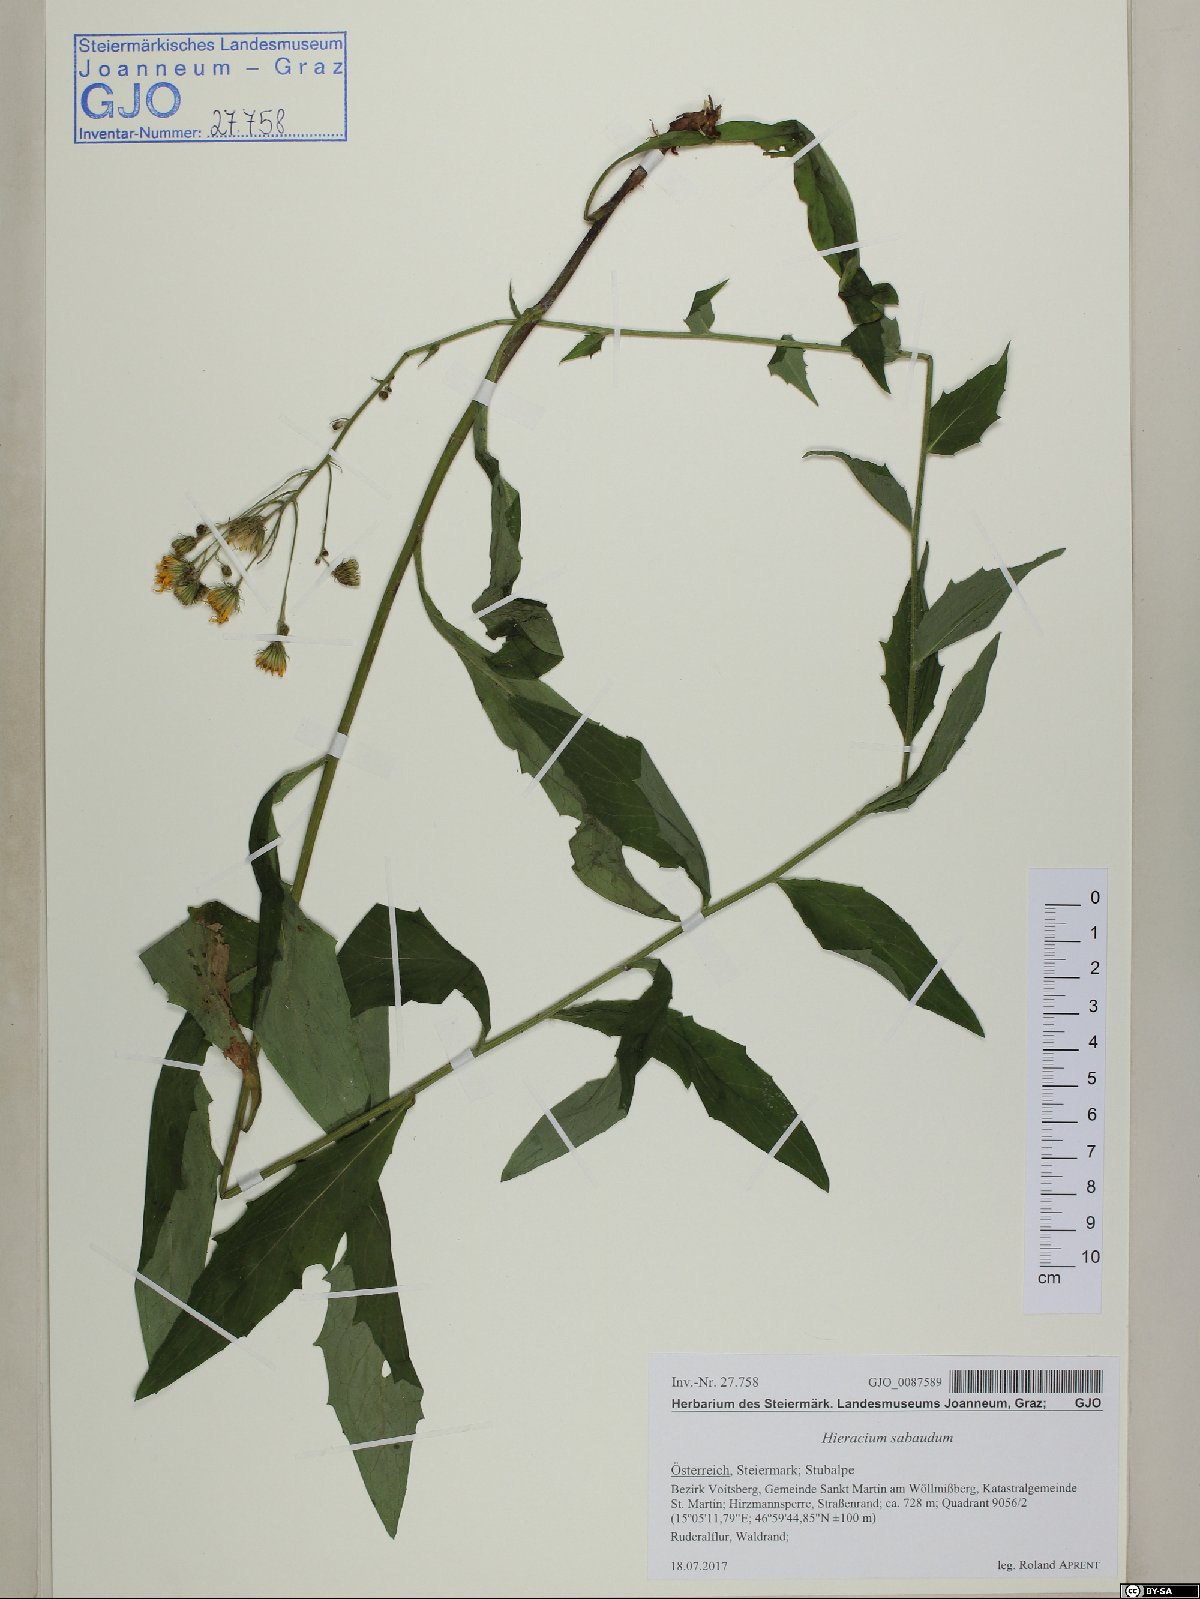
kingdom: Plantae
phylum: Tracheophyta
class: Magnoliopsida
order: Asterales
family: Asteraceae
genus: Hieracium
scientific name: Hieracium sabaudum
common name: New england hawkweed
